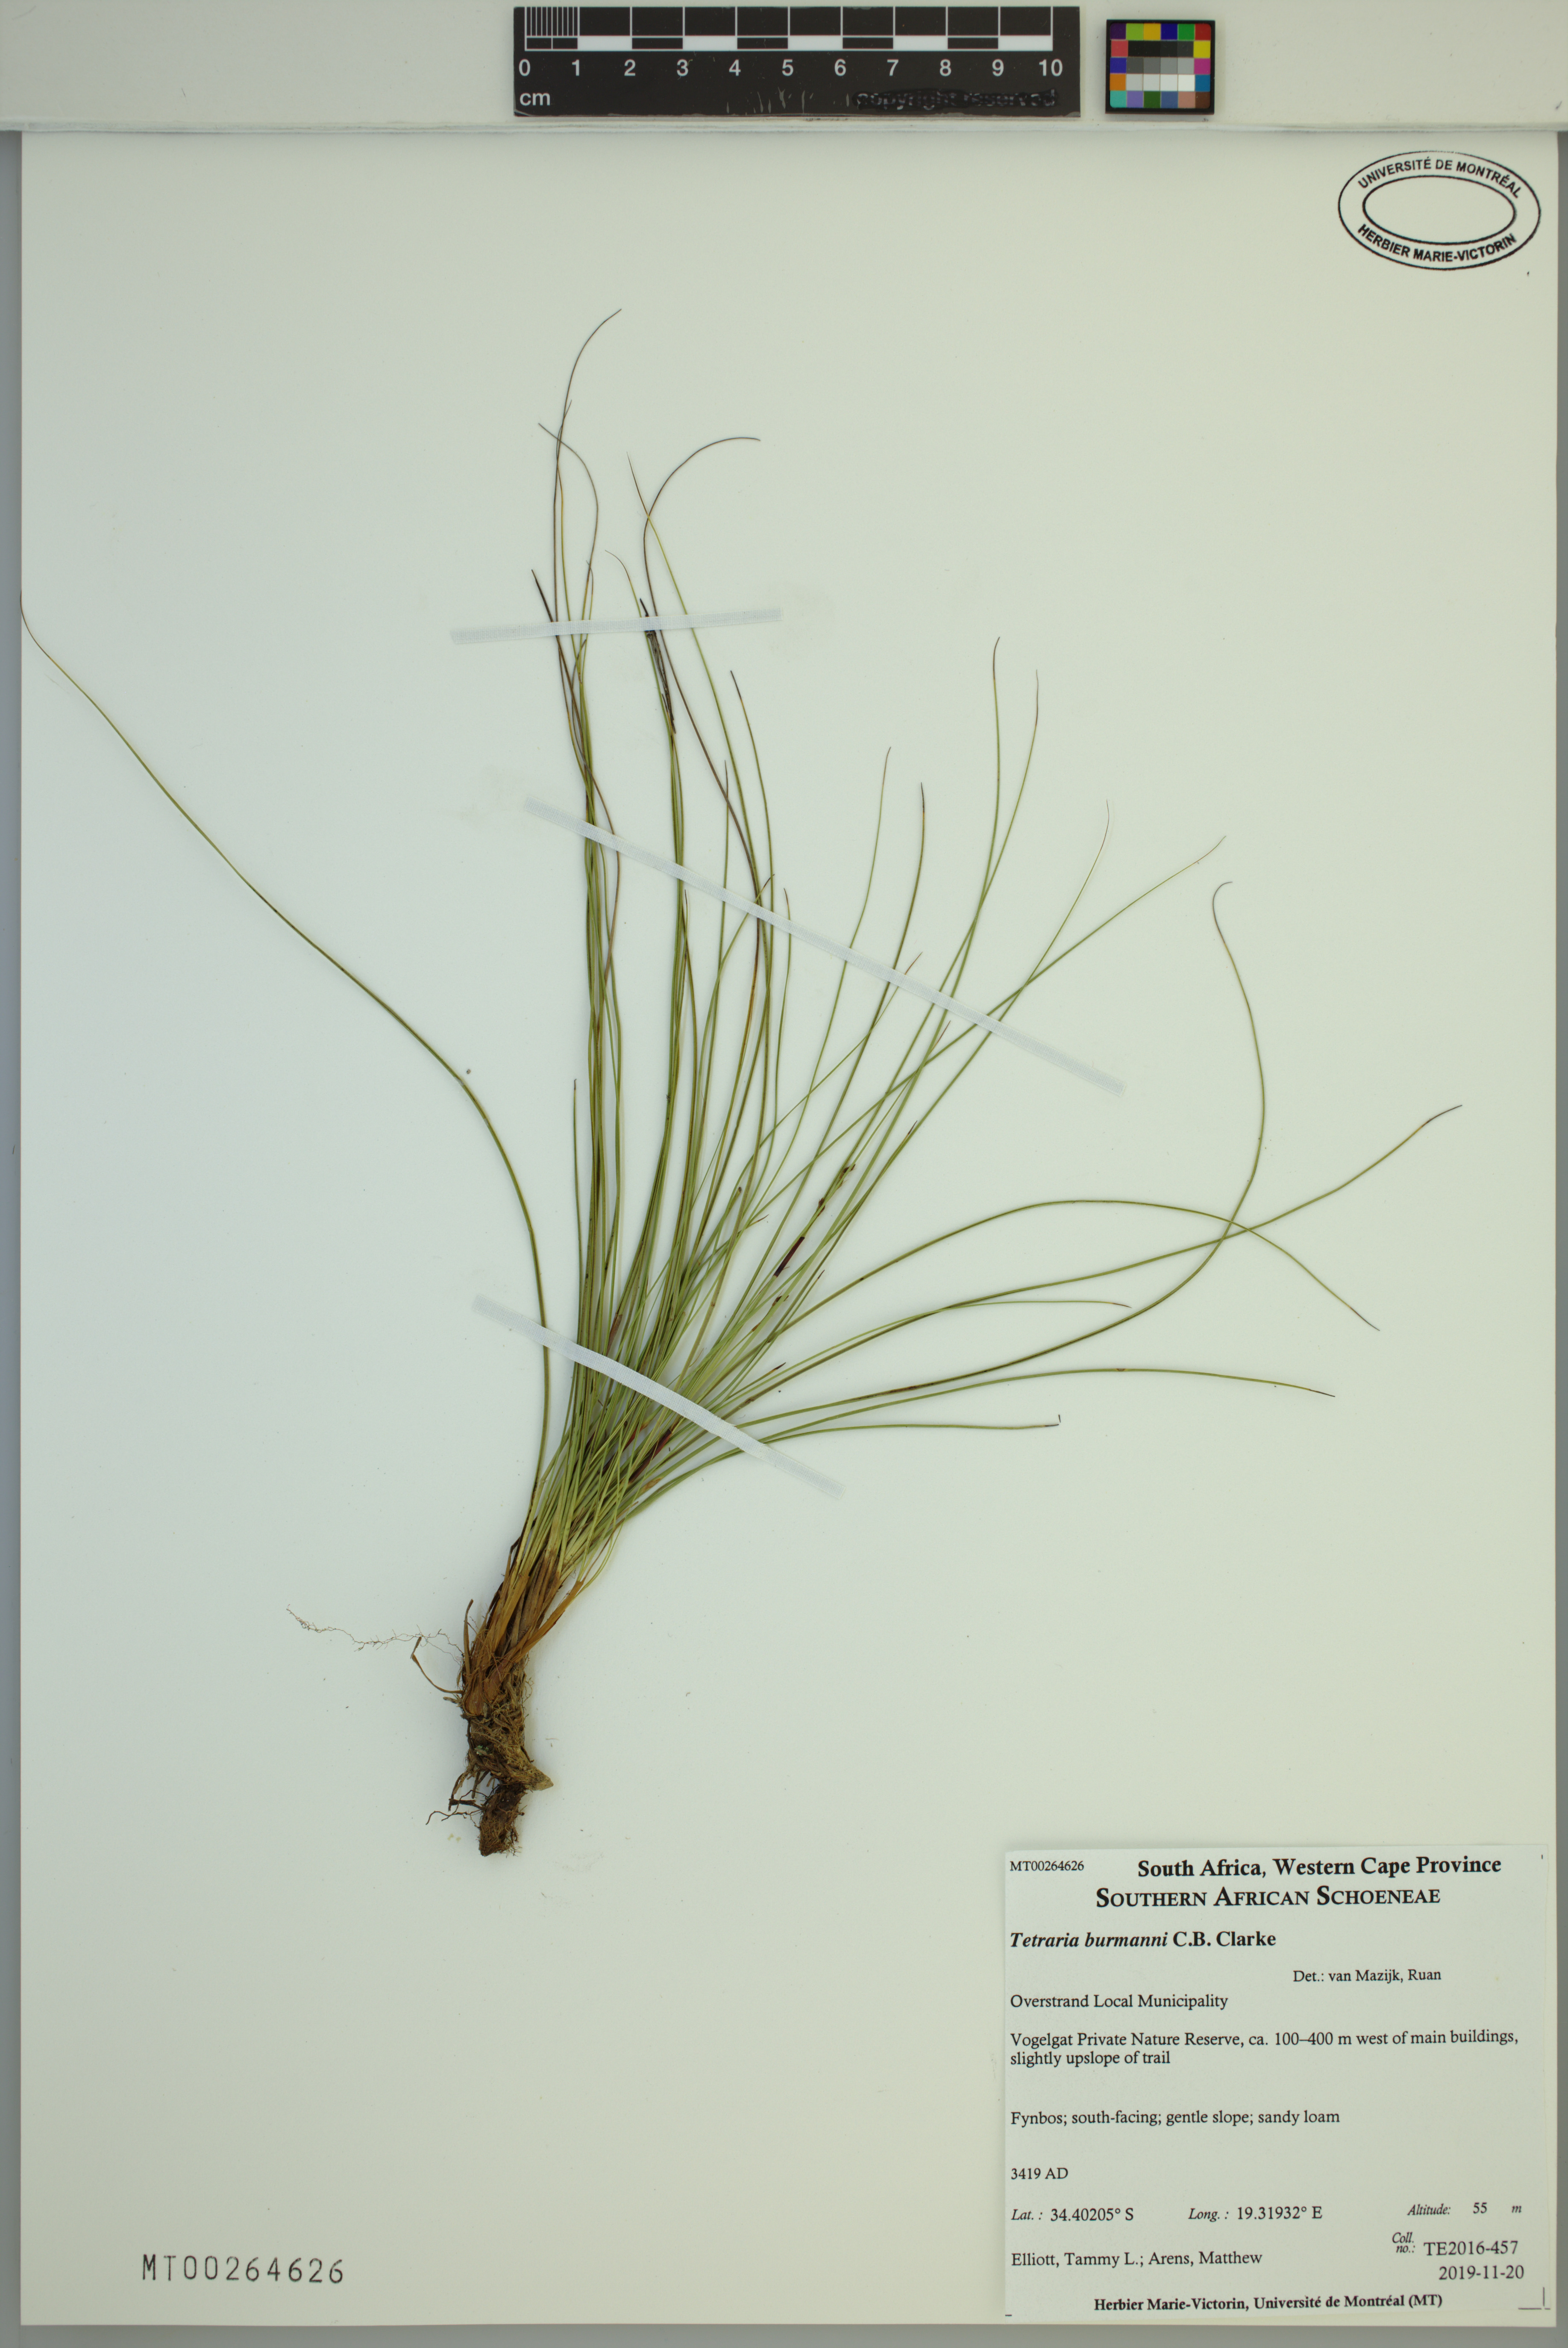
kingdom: Plantae
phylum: Tracheophyta
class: Liliopsida
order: Poales
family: Cyperaceae
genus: Tetraria
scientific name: Tetraria burmanni
